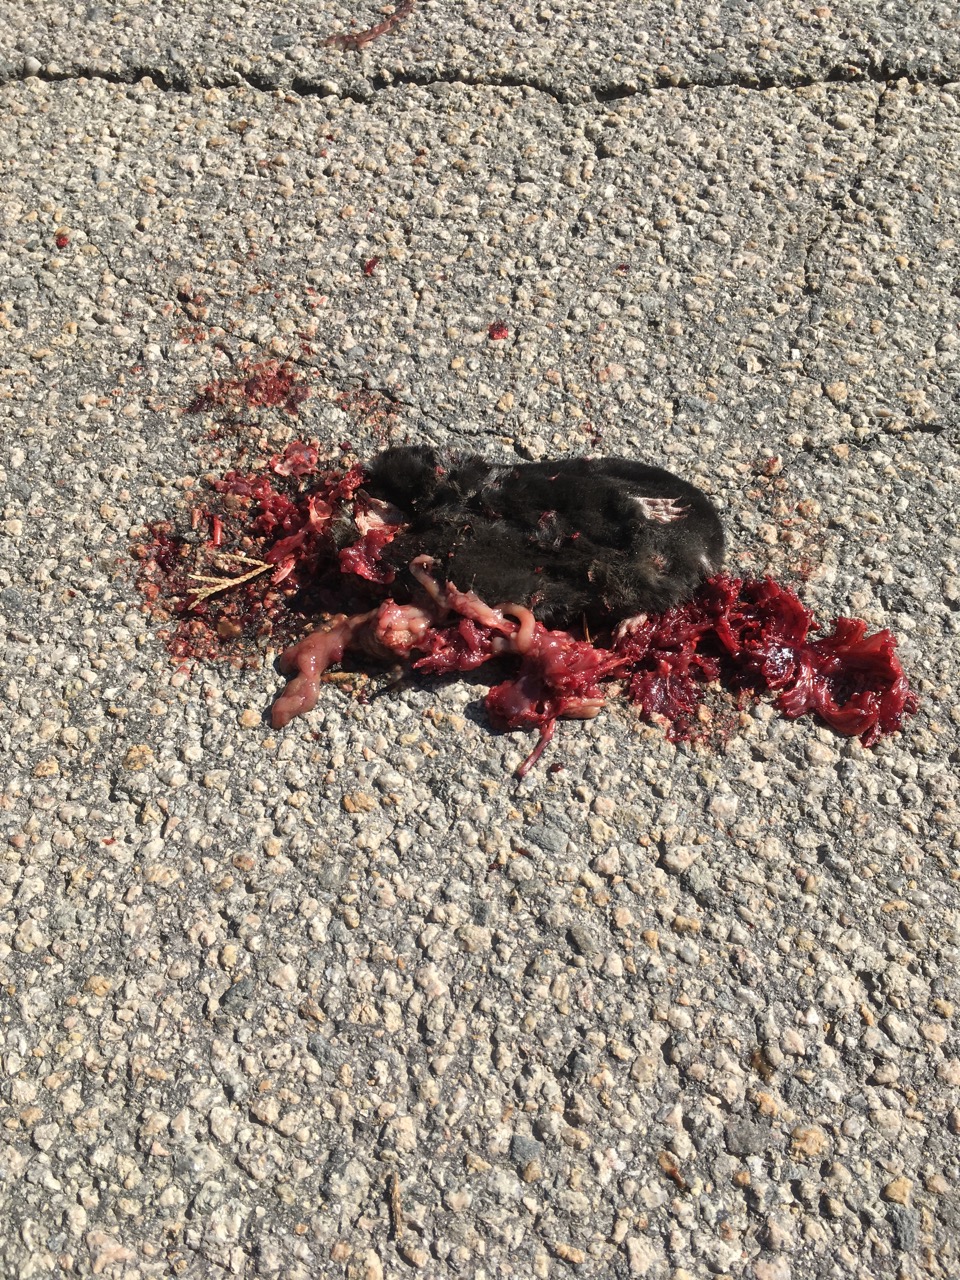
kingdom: Animalia
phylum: Chordata
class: Mammalia
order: Soricomorpha
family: Talpidae
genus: Talpa
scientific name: Talpa europaea
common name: European mole
